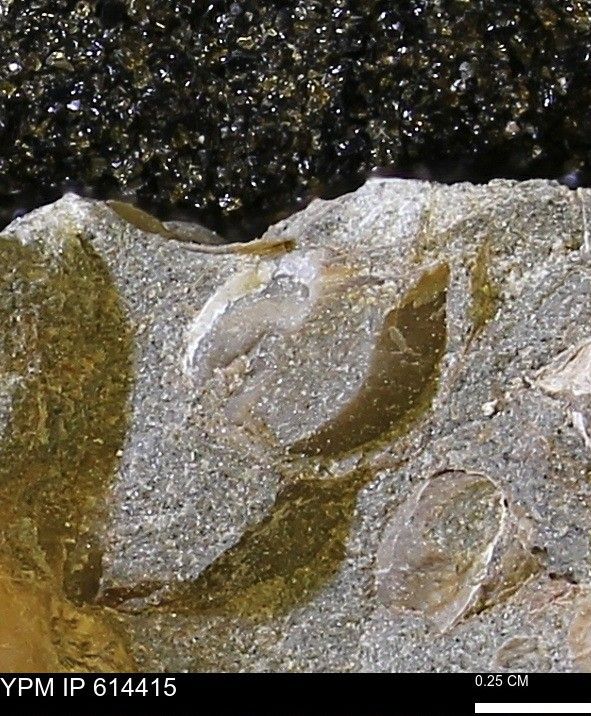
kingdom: Animalia
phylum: Mollusca
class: Bivalvia
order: Arcida
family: Limopsidae
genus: Limopsis
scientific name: Limopsis
